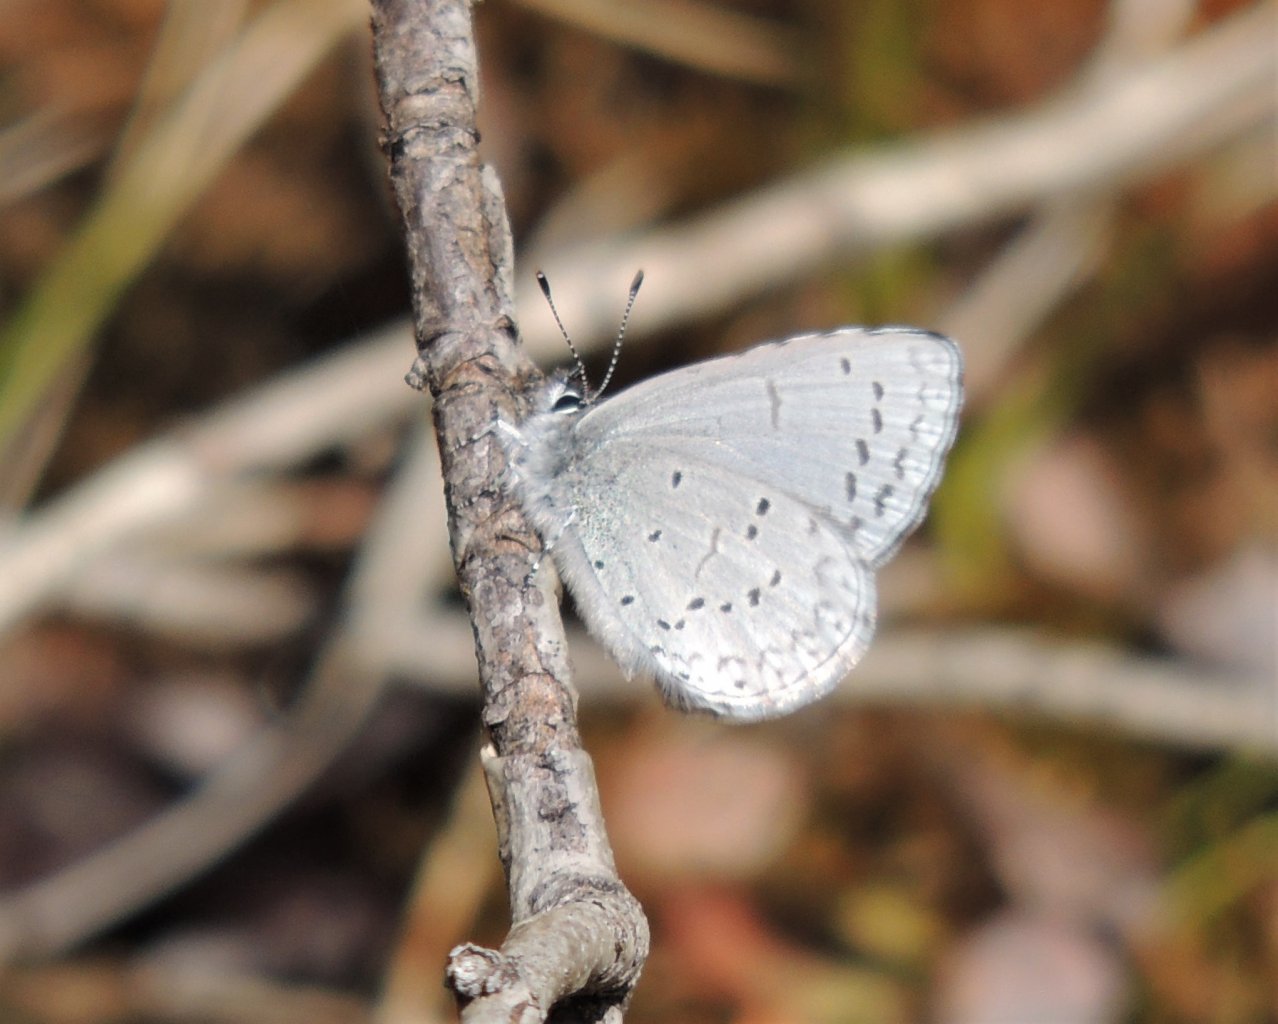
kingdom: Animalia
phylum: Arthropoda
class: Insecta
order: Lepidoptera
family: Lycaenidae
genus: Celastrina
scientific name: Celastrina ladon
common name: Echo Azure
